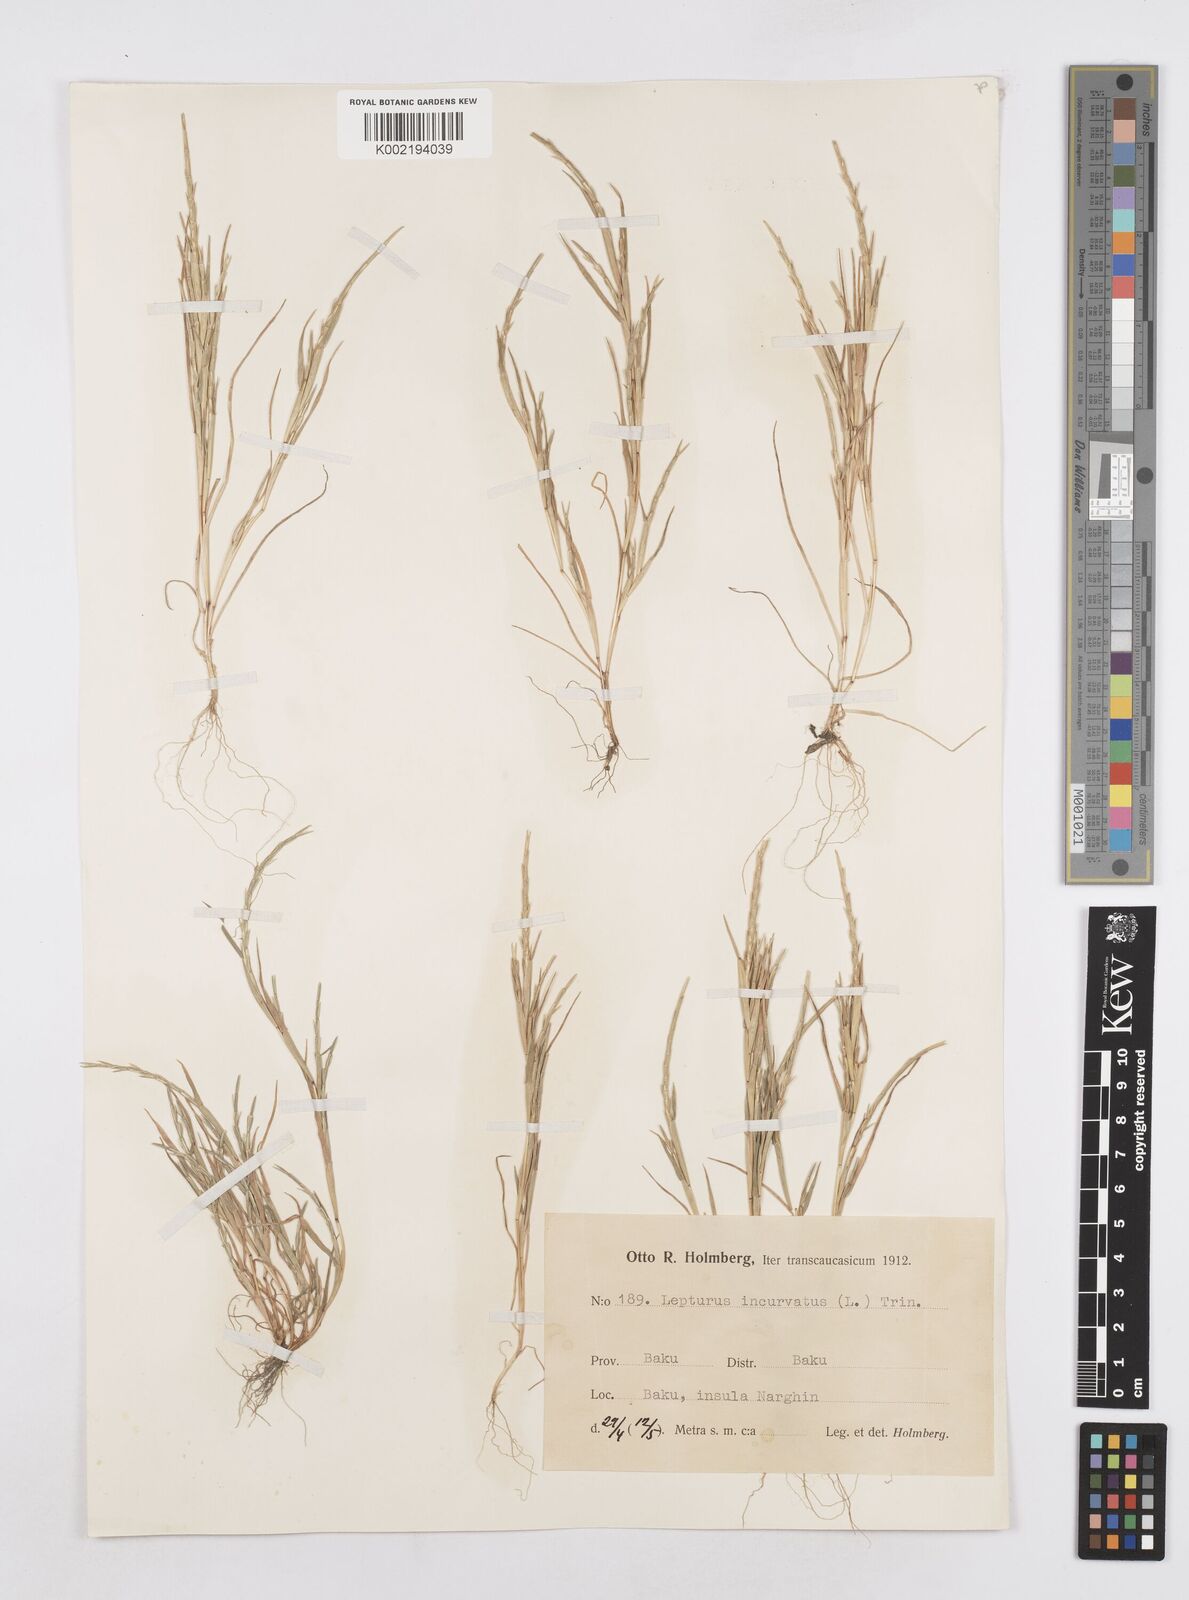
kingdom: Plantae
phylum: Tracheophyta
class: Liliopsida
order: Poales
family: Poaceae
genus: Parapholis
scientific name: Parapholis incurva
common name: Curved sicklegrass
